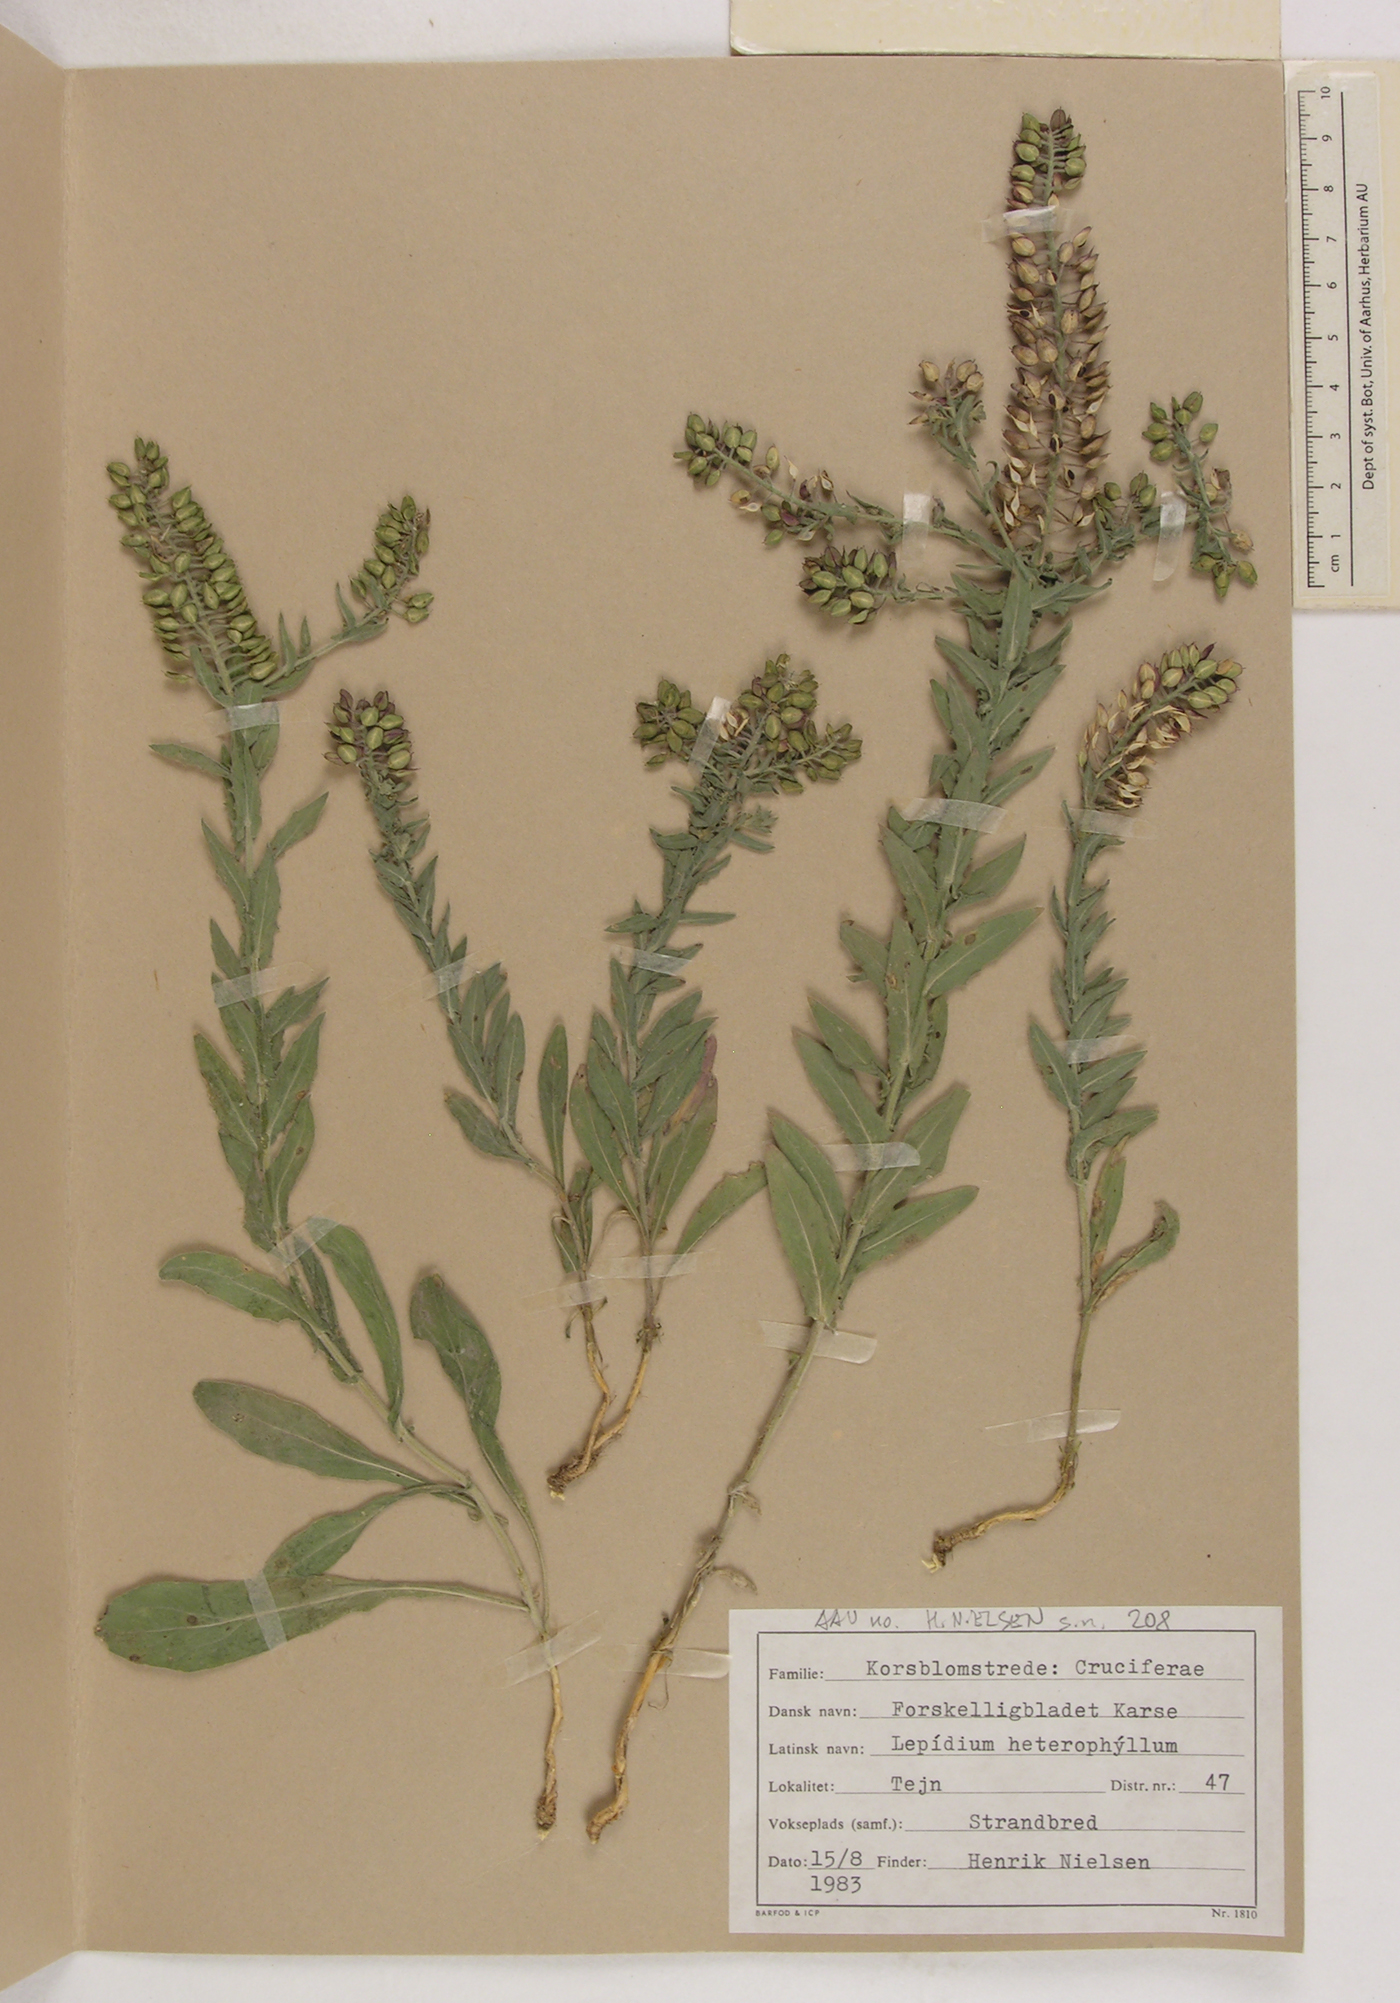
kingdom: Plantae
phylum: Tracheophyta
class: Magnoliopsida
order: Brassicales
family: Brassicaceae
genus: Lepidium
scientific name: Lepidium heterophyllum
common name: Smith's pepperwort
